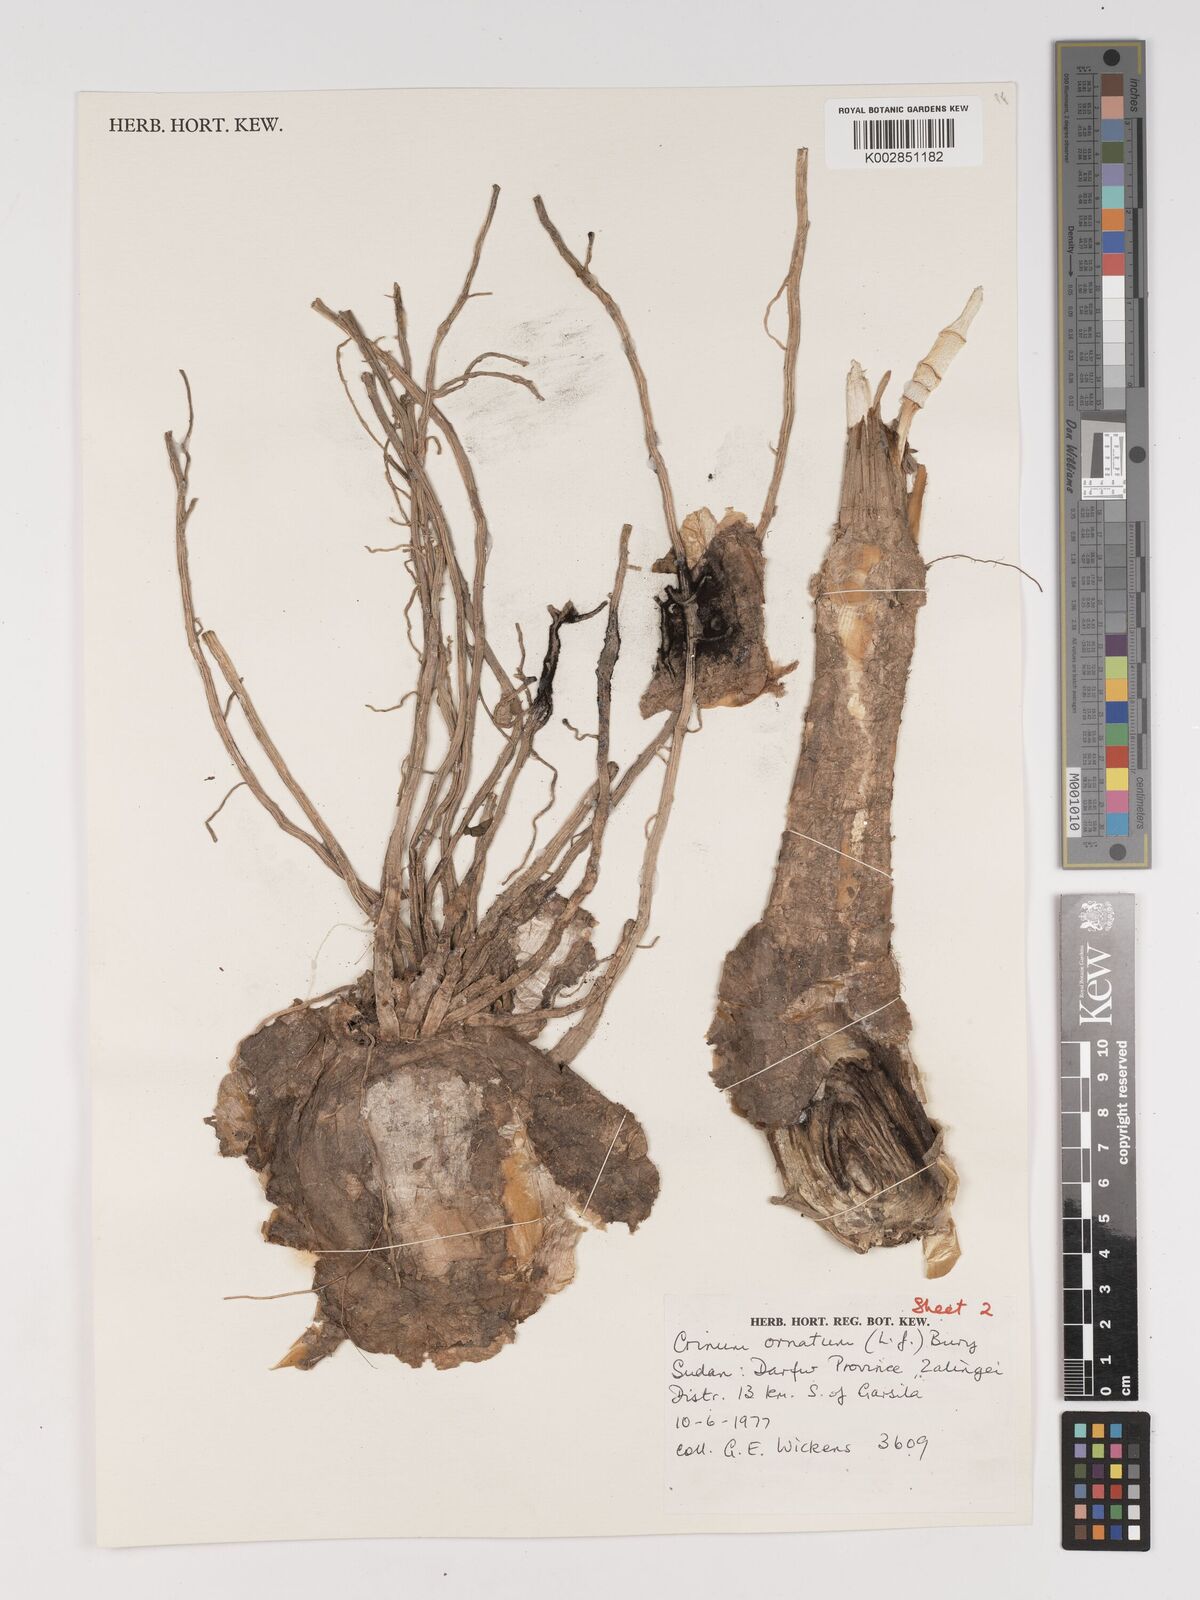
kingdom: Plantae
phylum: Tracheophyta
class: Liliopsida
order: Asparagales
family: Amaryllidaceae
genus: Crinum
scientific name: Crinum zeylanicum
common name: Ceylon swamplily
